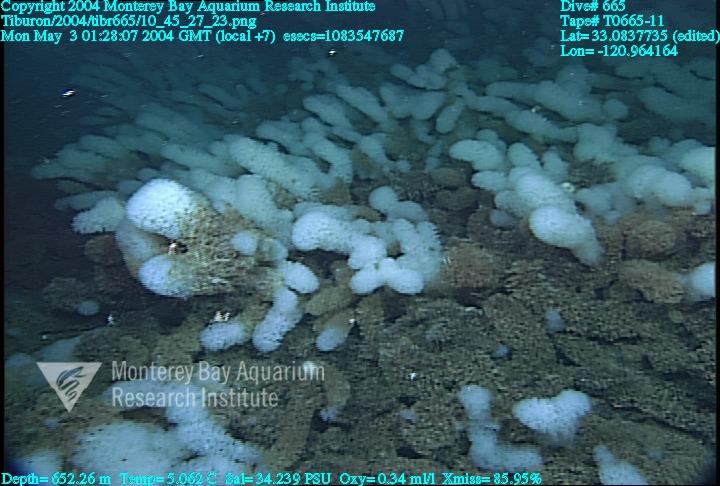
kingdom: Animalia
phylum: Porifera
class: Hexactinellida
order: Sceptrulophora
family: Farreidae
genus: Farrea
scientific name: Farrea
